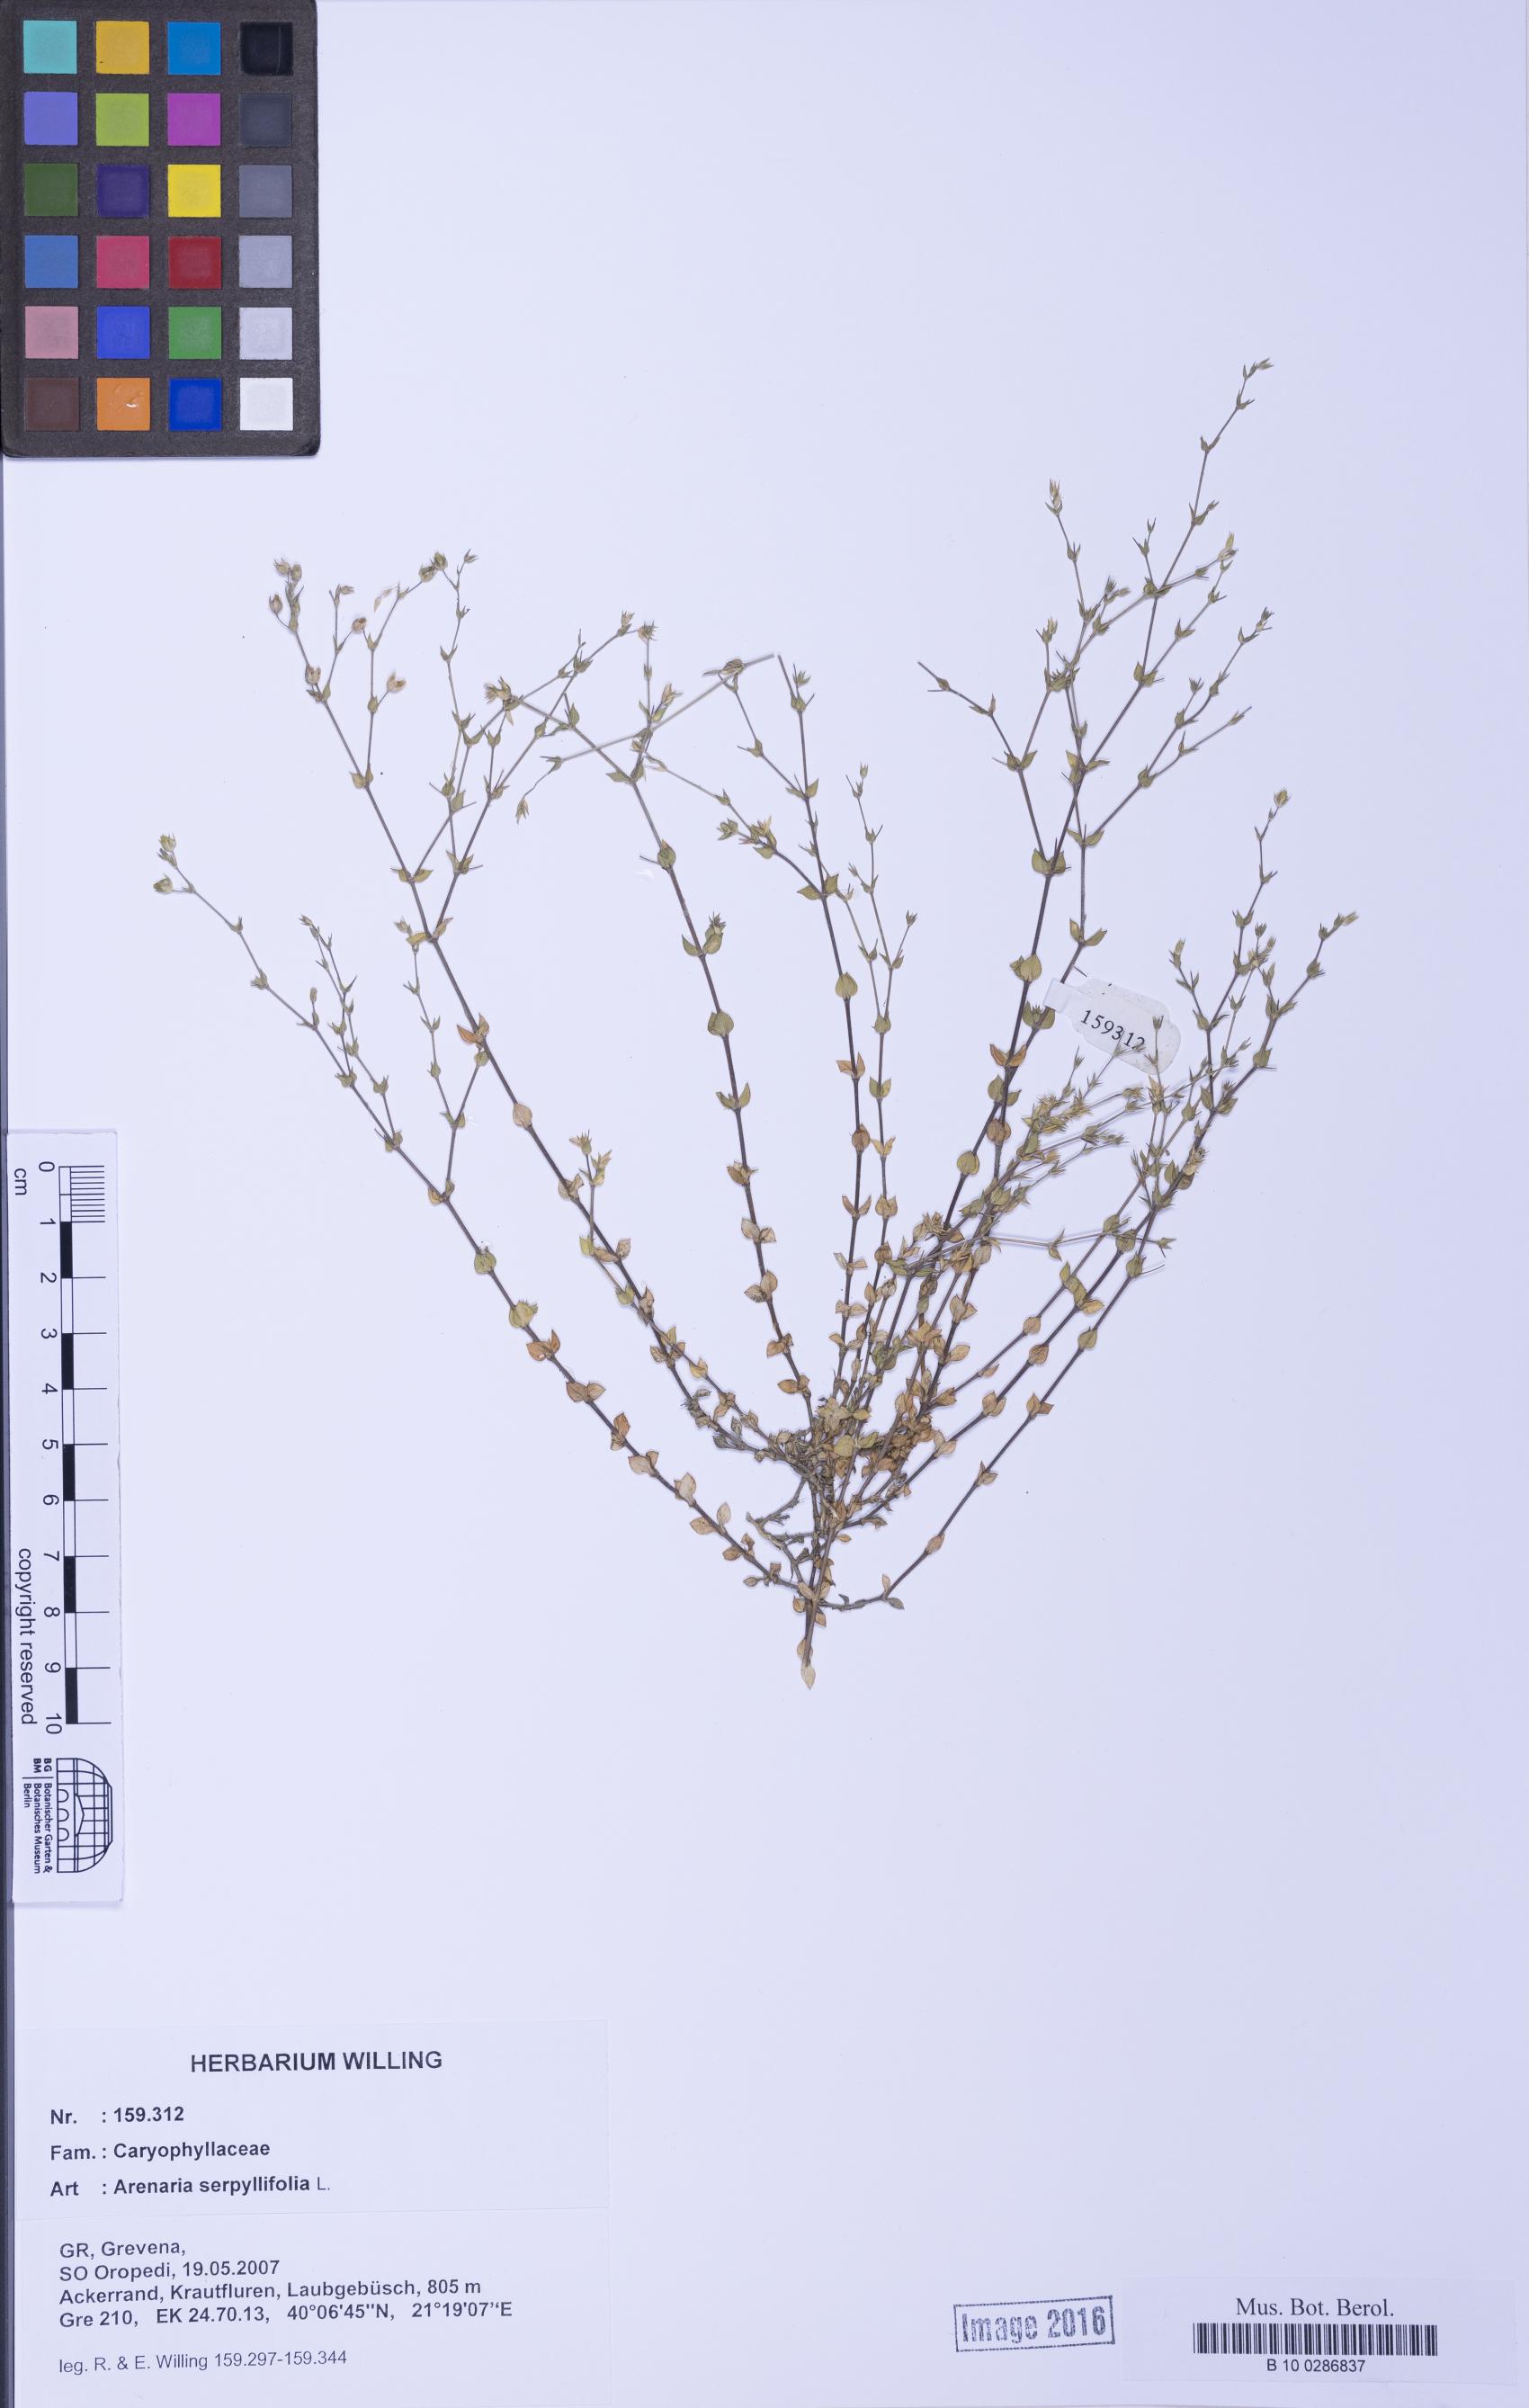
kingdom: Plantae
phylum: Tracheophyta
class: Magnoliopsida
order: Caryophyllales
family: Caryophyllaceae
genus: Arenaria
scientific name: Arenaria serpyllifolia
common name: Thyme-leaved sandwort
